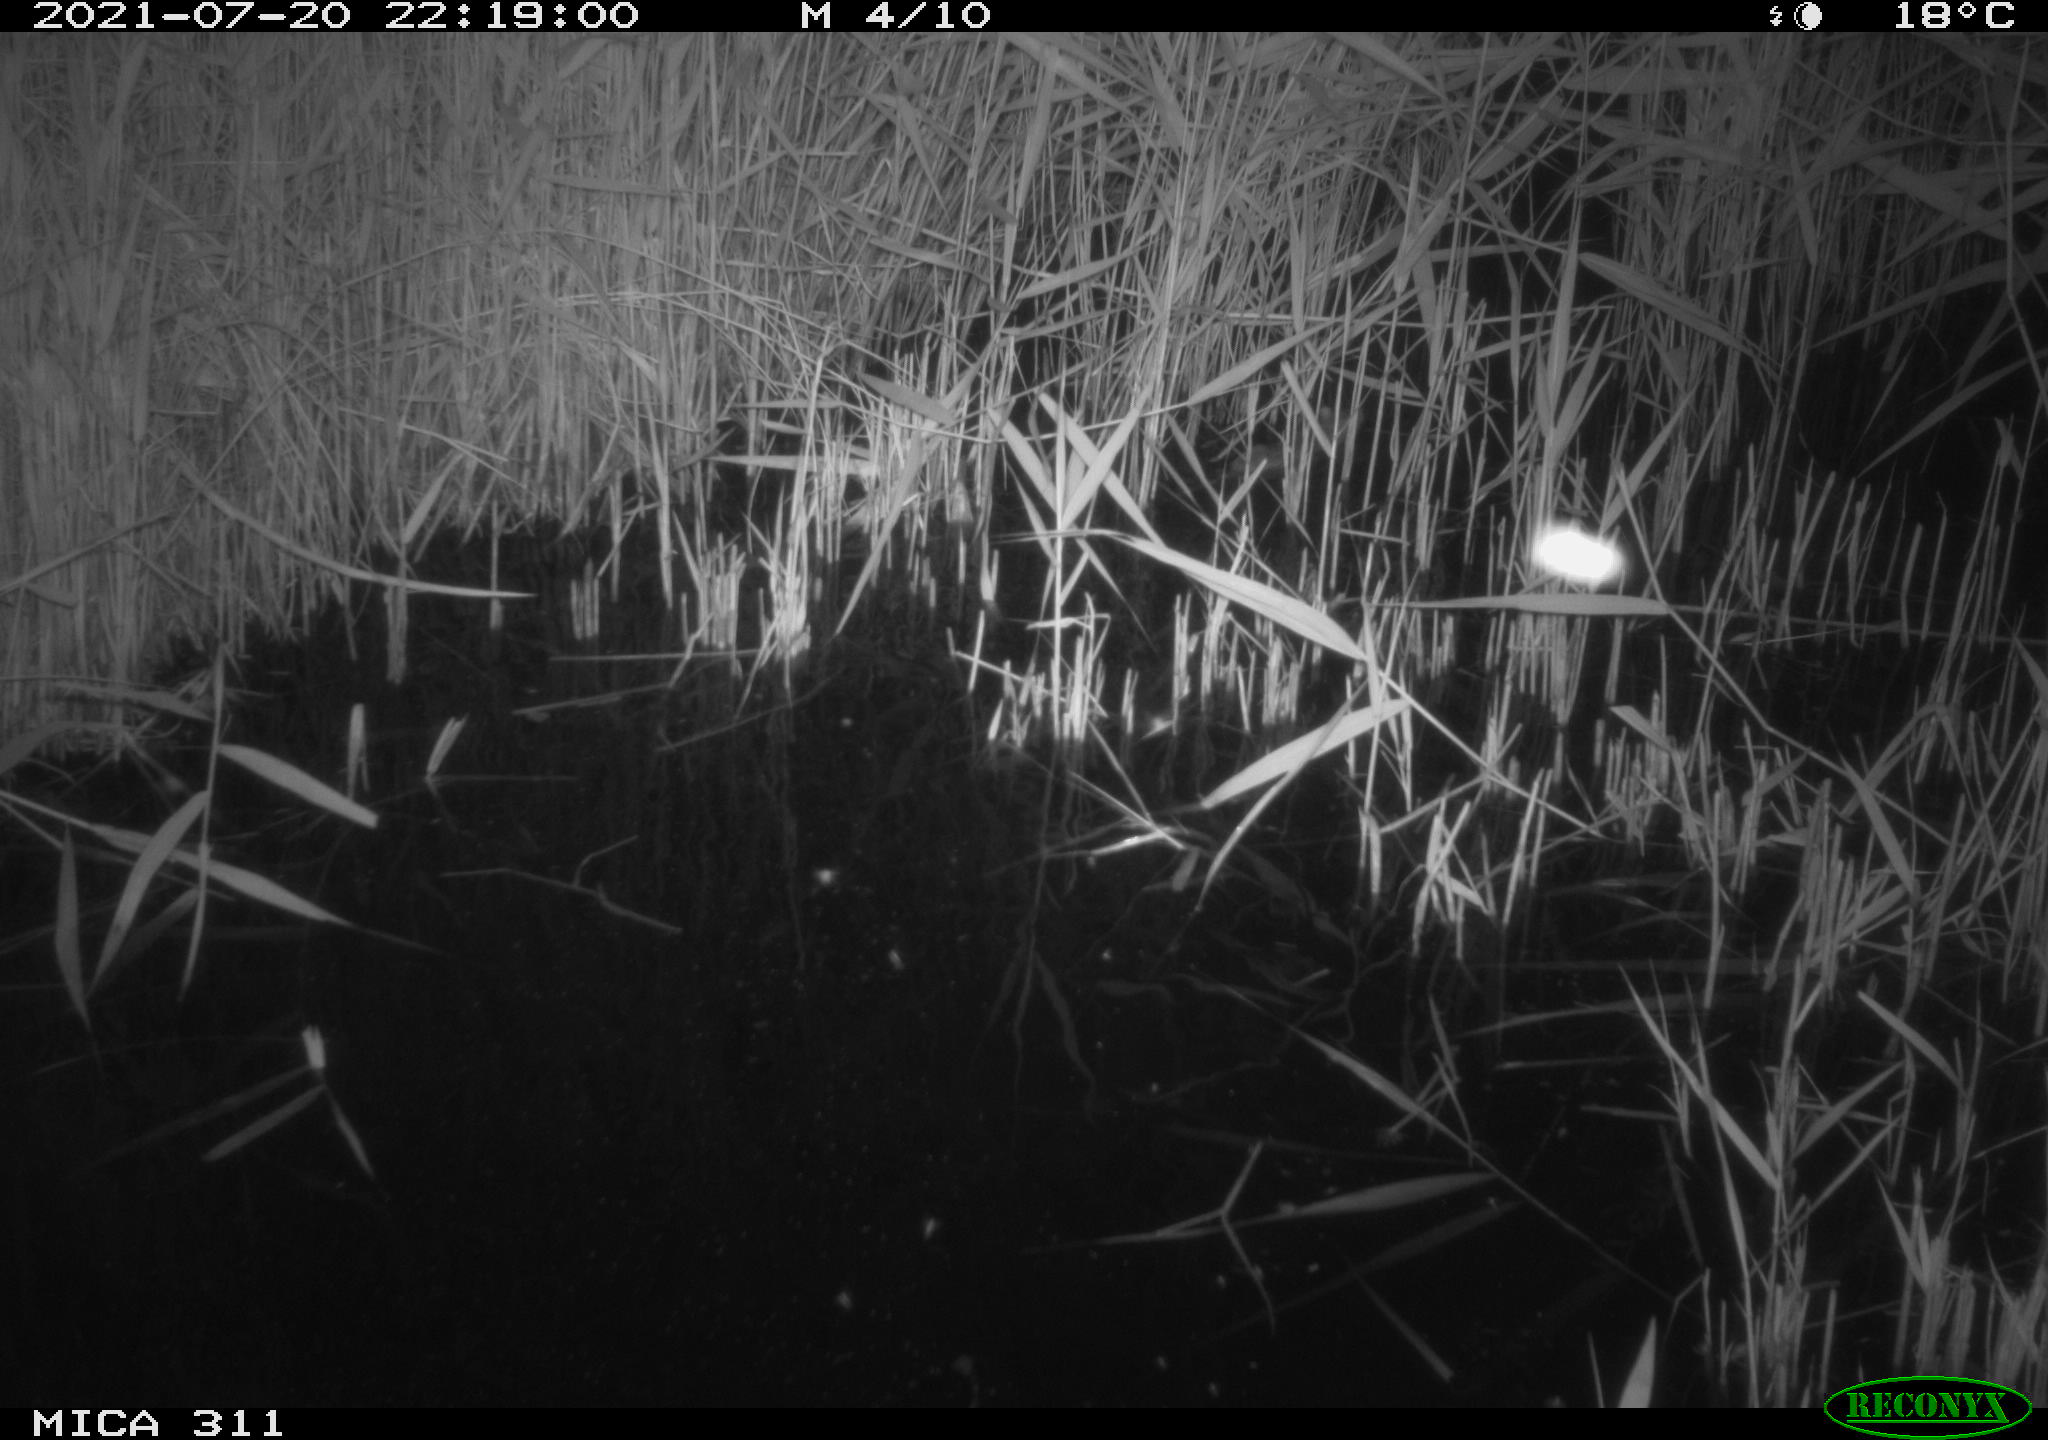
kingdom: Animalia
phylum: Chordata
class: Mammalia
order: Rodentia
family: Muridae
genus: Rattus
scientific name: Rattus norvegicus
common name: Brown rat
